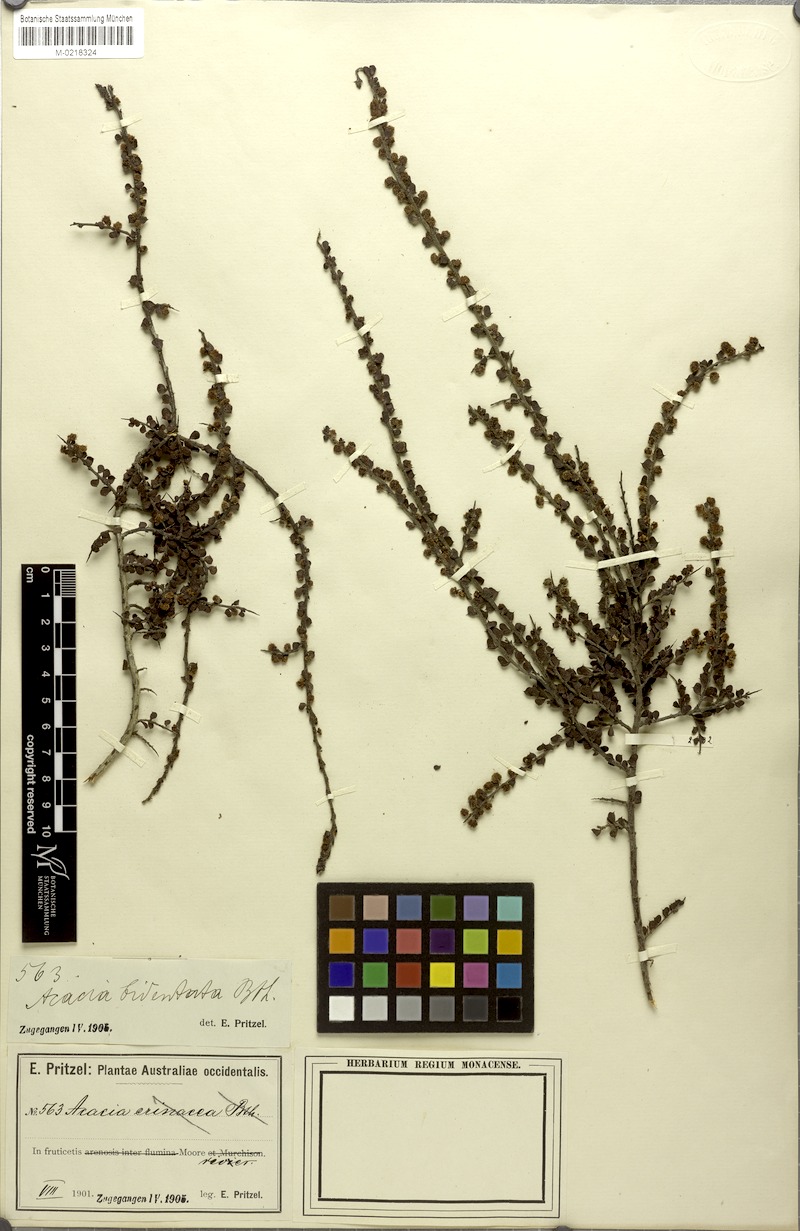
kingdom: Plantae
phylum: Tracheophyta
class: Magnoliopsida
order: Fabales
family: Fabaceae
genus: Acacia
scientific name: Acacia bidentata
